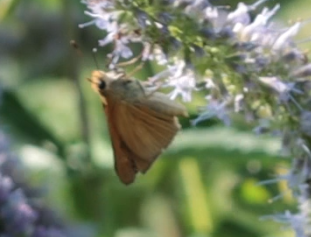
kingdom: Animalia
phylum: Arthropoda
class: Insecta
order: Lepidoptera
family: Hesperiidae
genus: Euphyes
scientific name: Euphyes dion
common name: Dion Skipper
